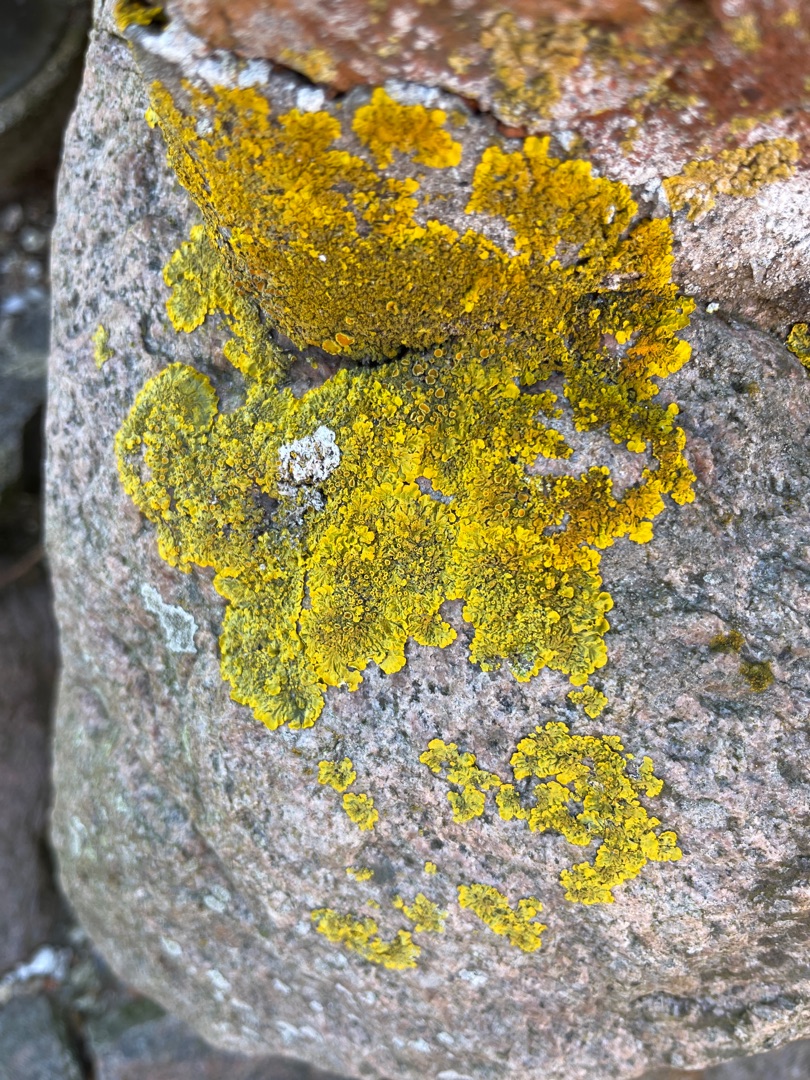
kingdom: Fungi
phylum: Ascomycota
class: Lecanoromycetes
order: Teloschistales
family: Teloschistaceae
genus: Xanthoria
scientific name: Xanthoria parietina
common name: Almindelig væggelav
